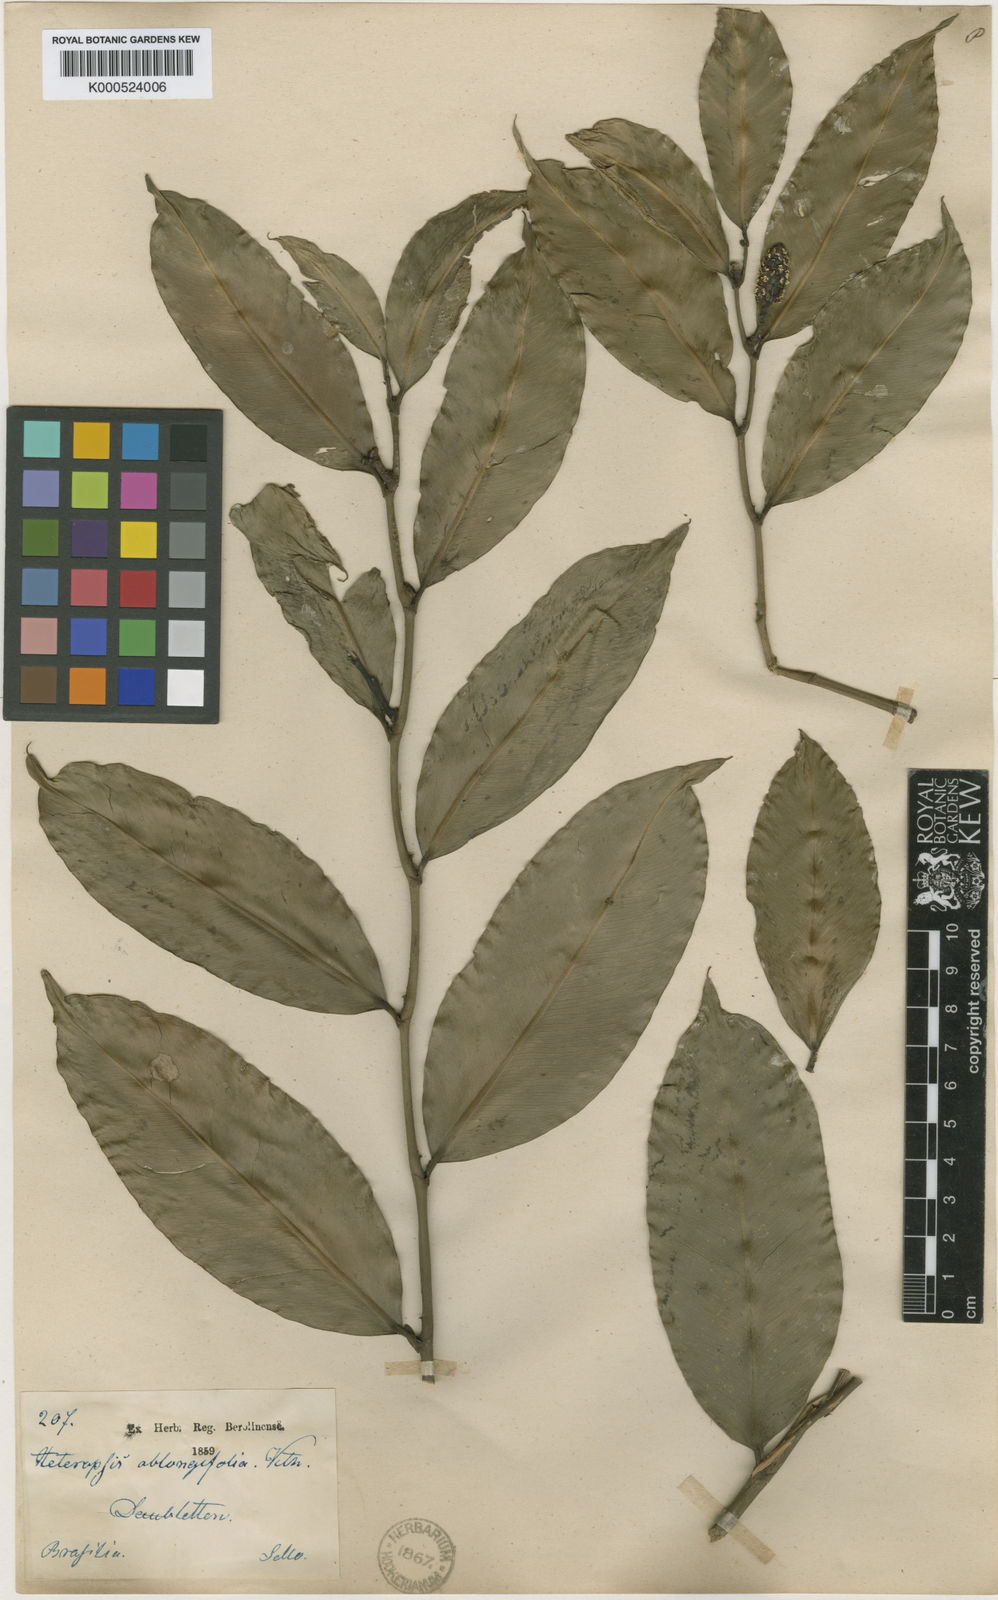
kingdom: Plantae
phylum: Tracheophyta
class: Liliopsida
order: Alismatales
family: Araceae
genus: Heteropsis
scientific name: Heteropsis oblongifolia
